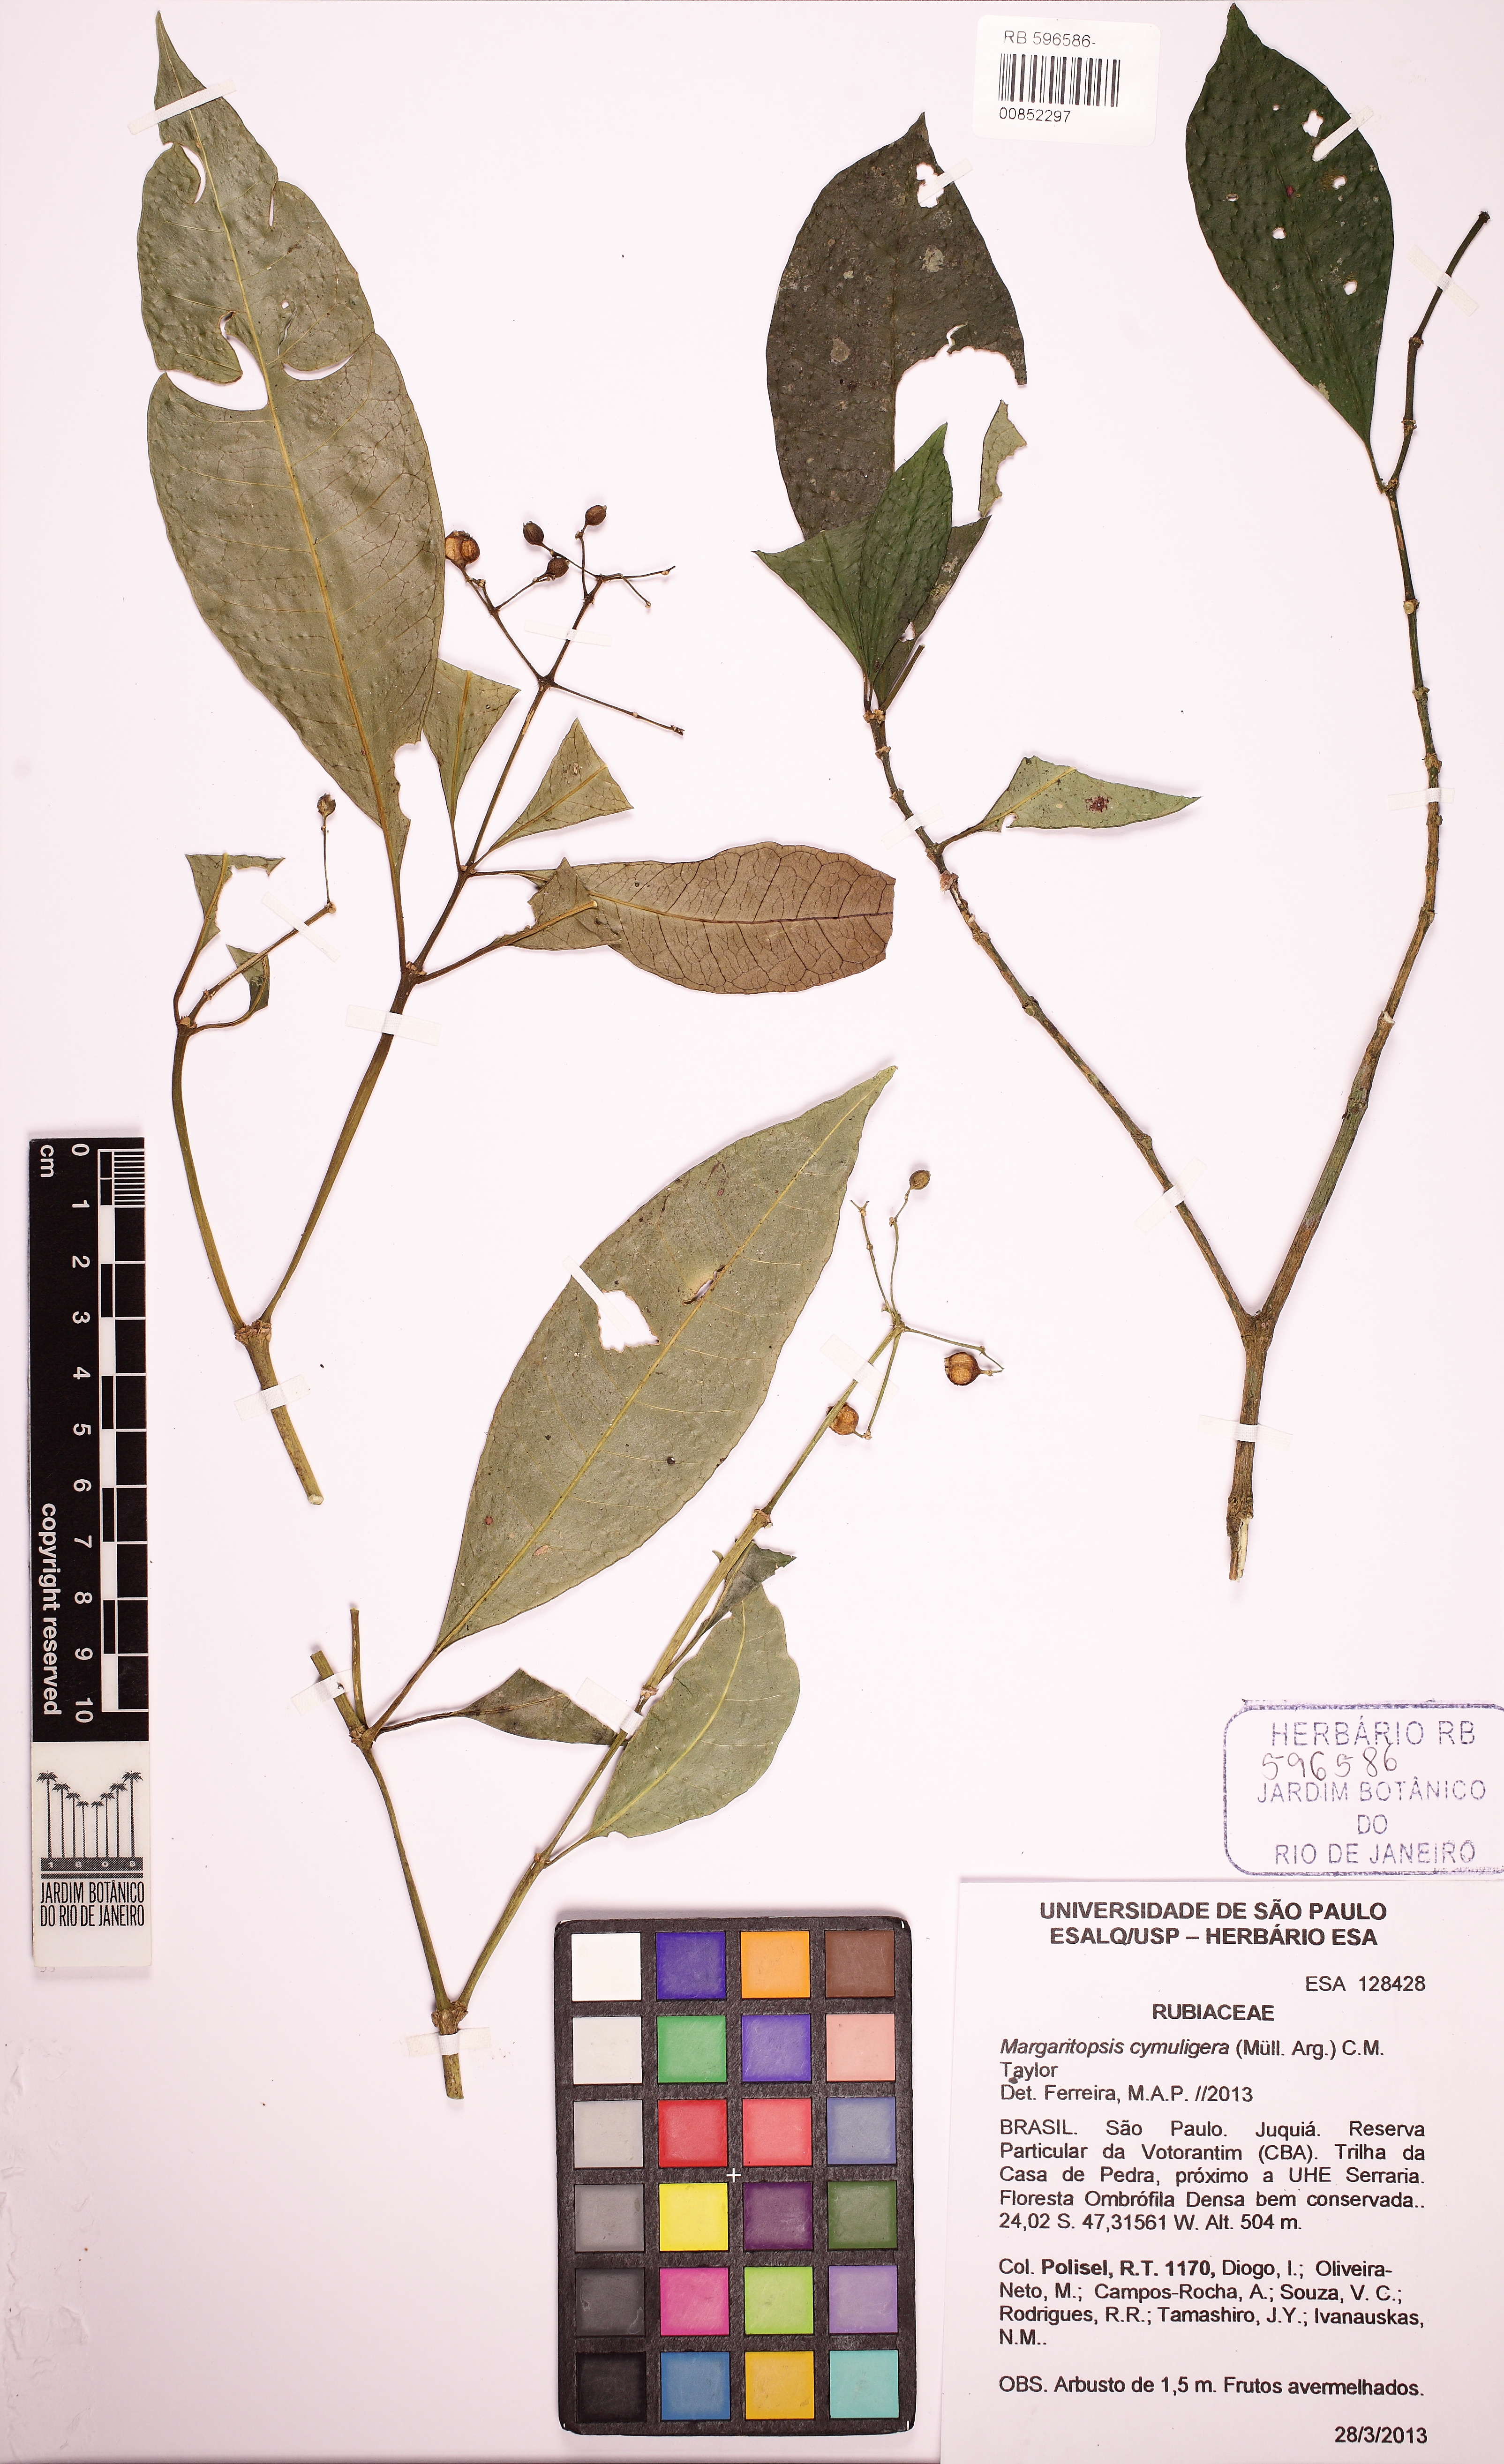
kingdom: Plantae
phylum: Tracheophyta
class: Magnoliopsida
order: Gentianales
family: Rubiaceae
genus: Eumachia
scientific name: Eumachia cymuligera
